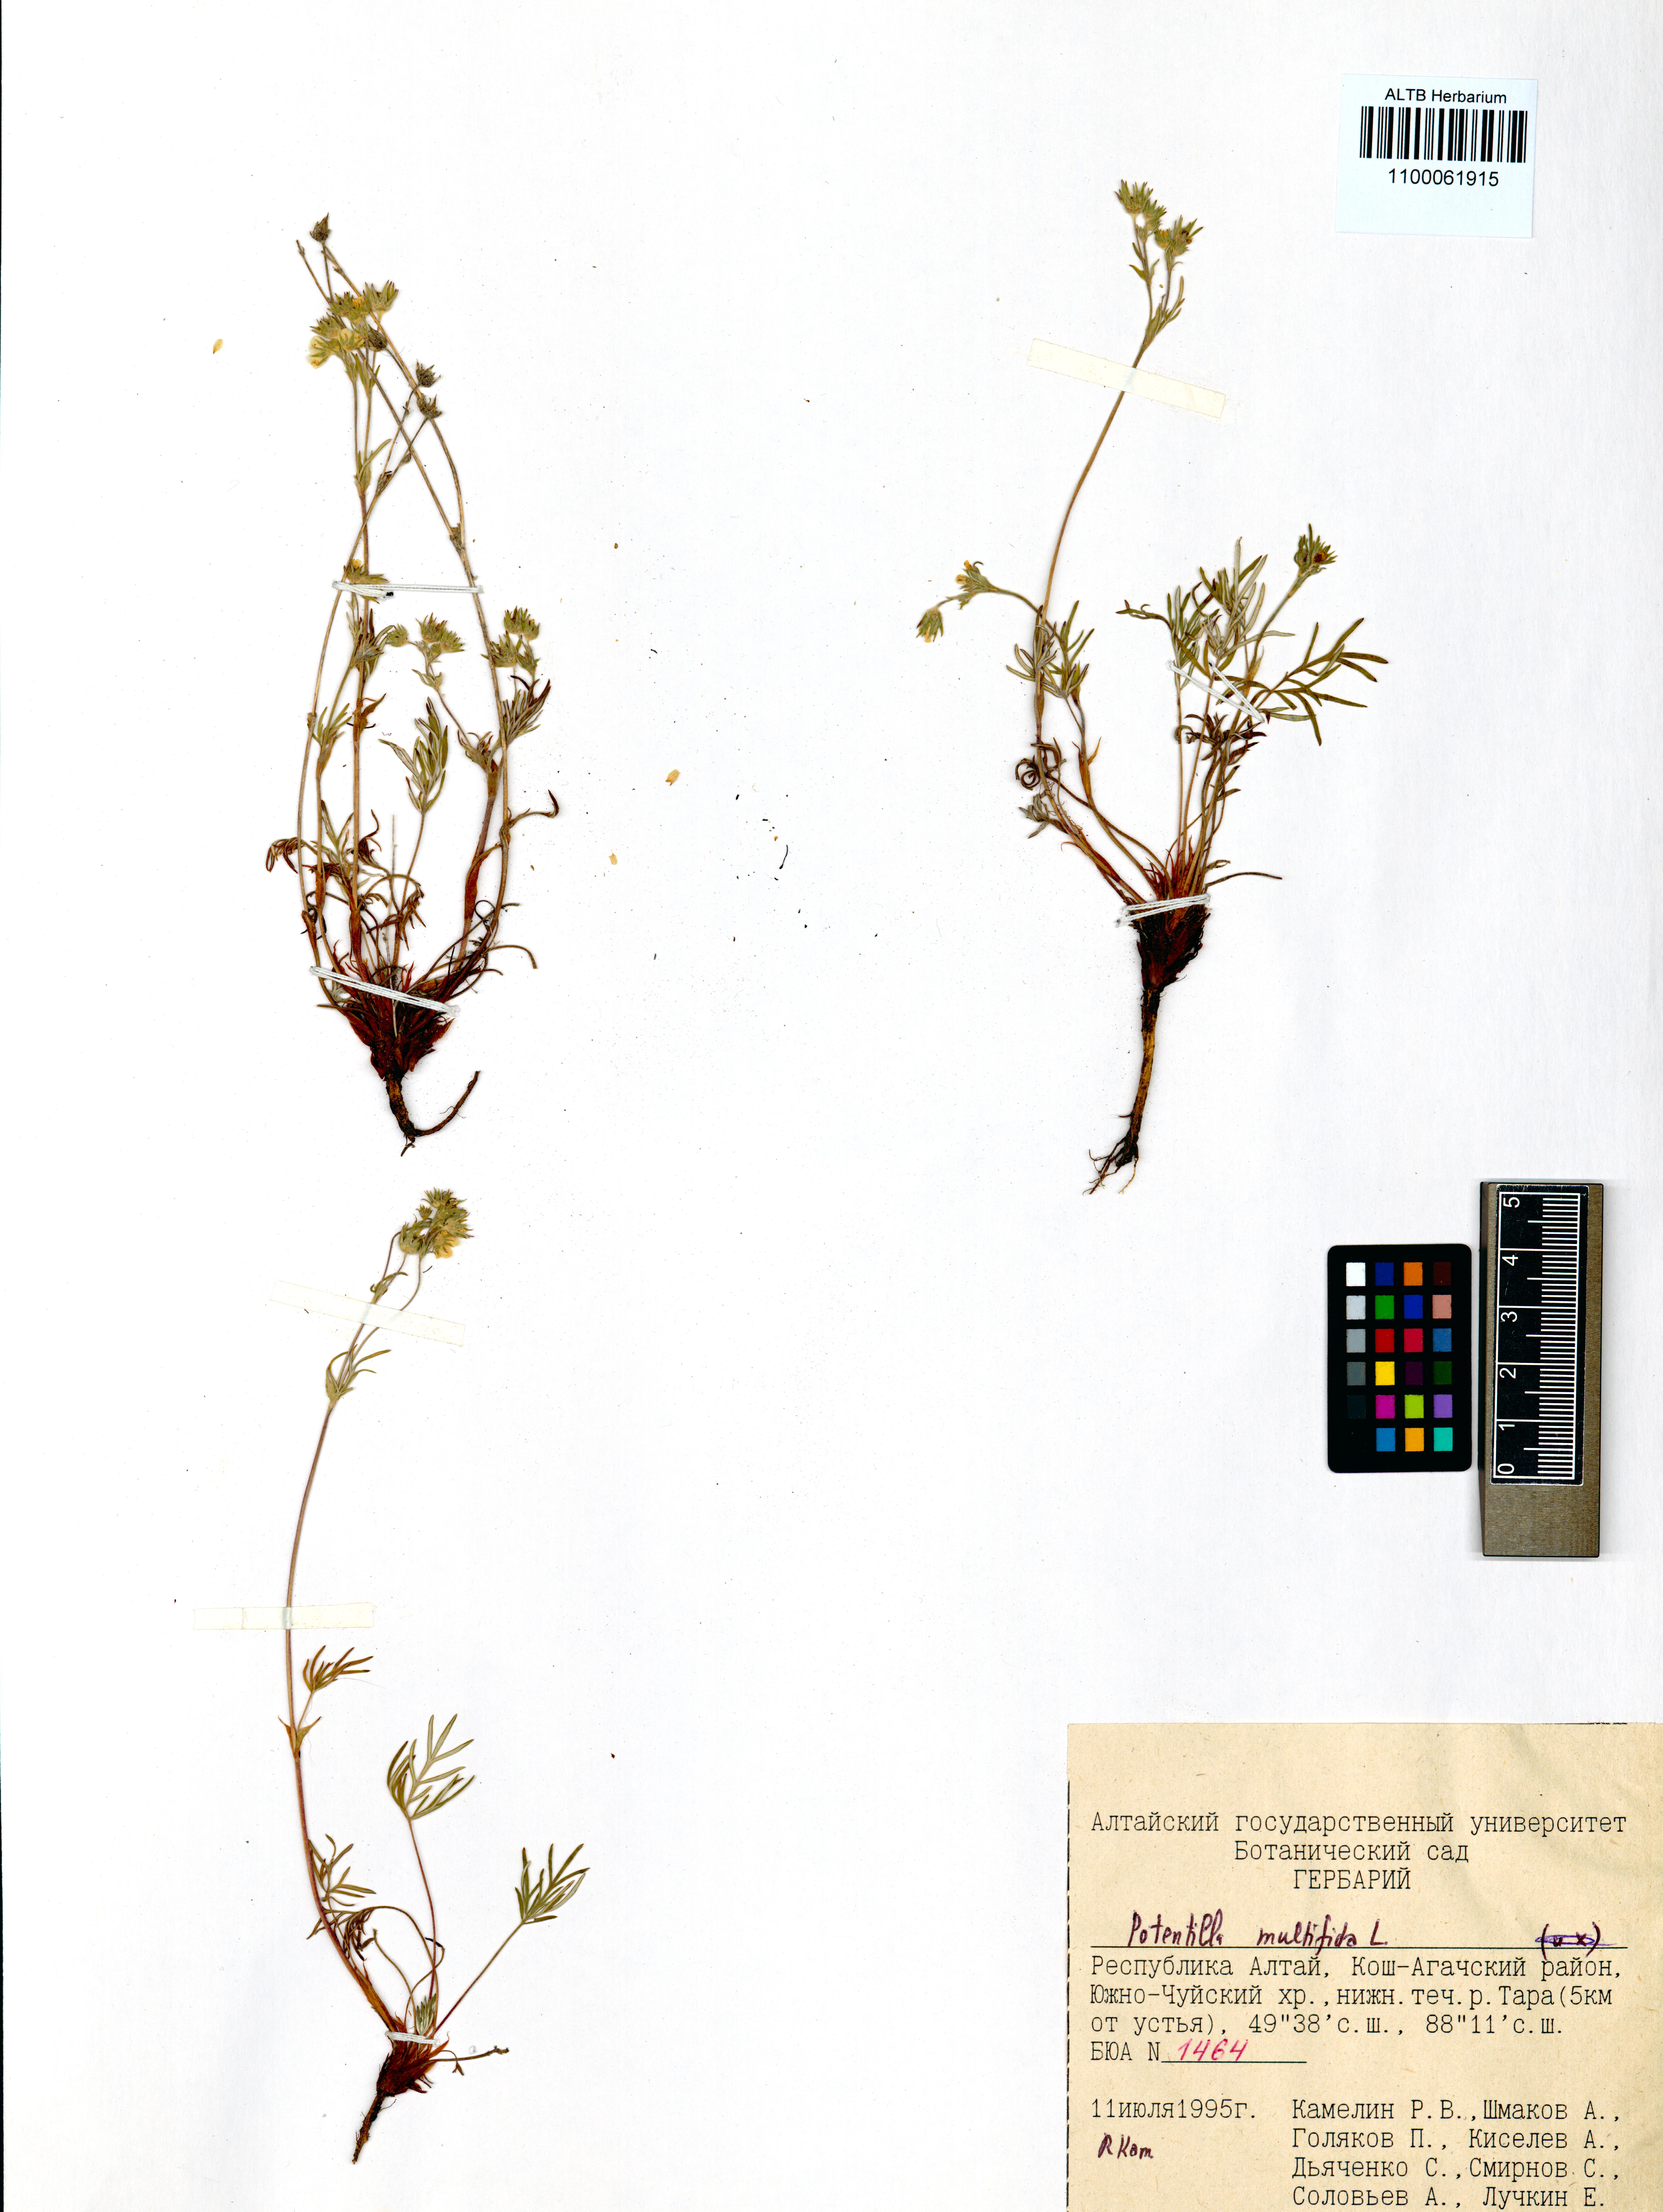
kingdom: Plantae
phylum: Tracheophyta
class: Magnoliopsida
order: Rosales
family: Rosaceae
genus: Potentilla
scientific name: Potentilla multifida
